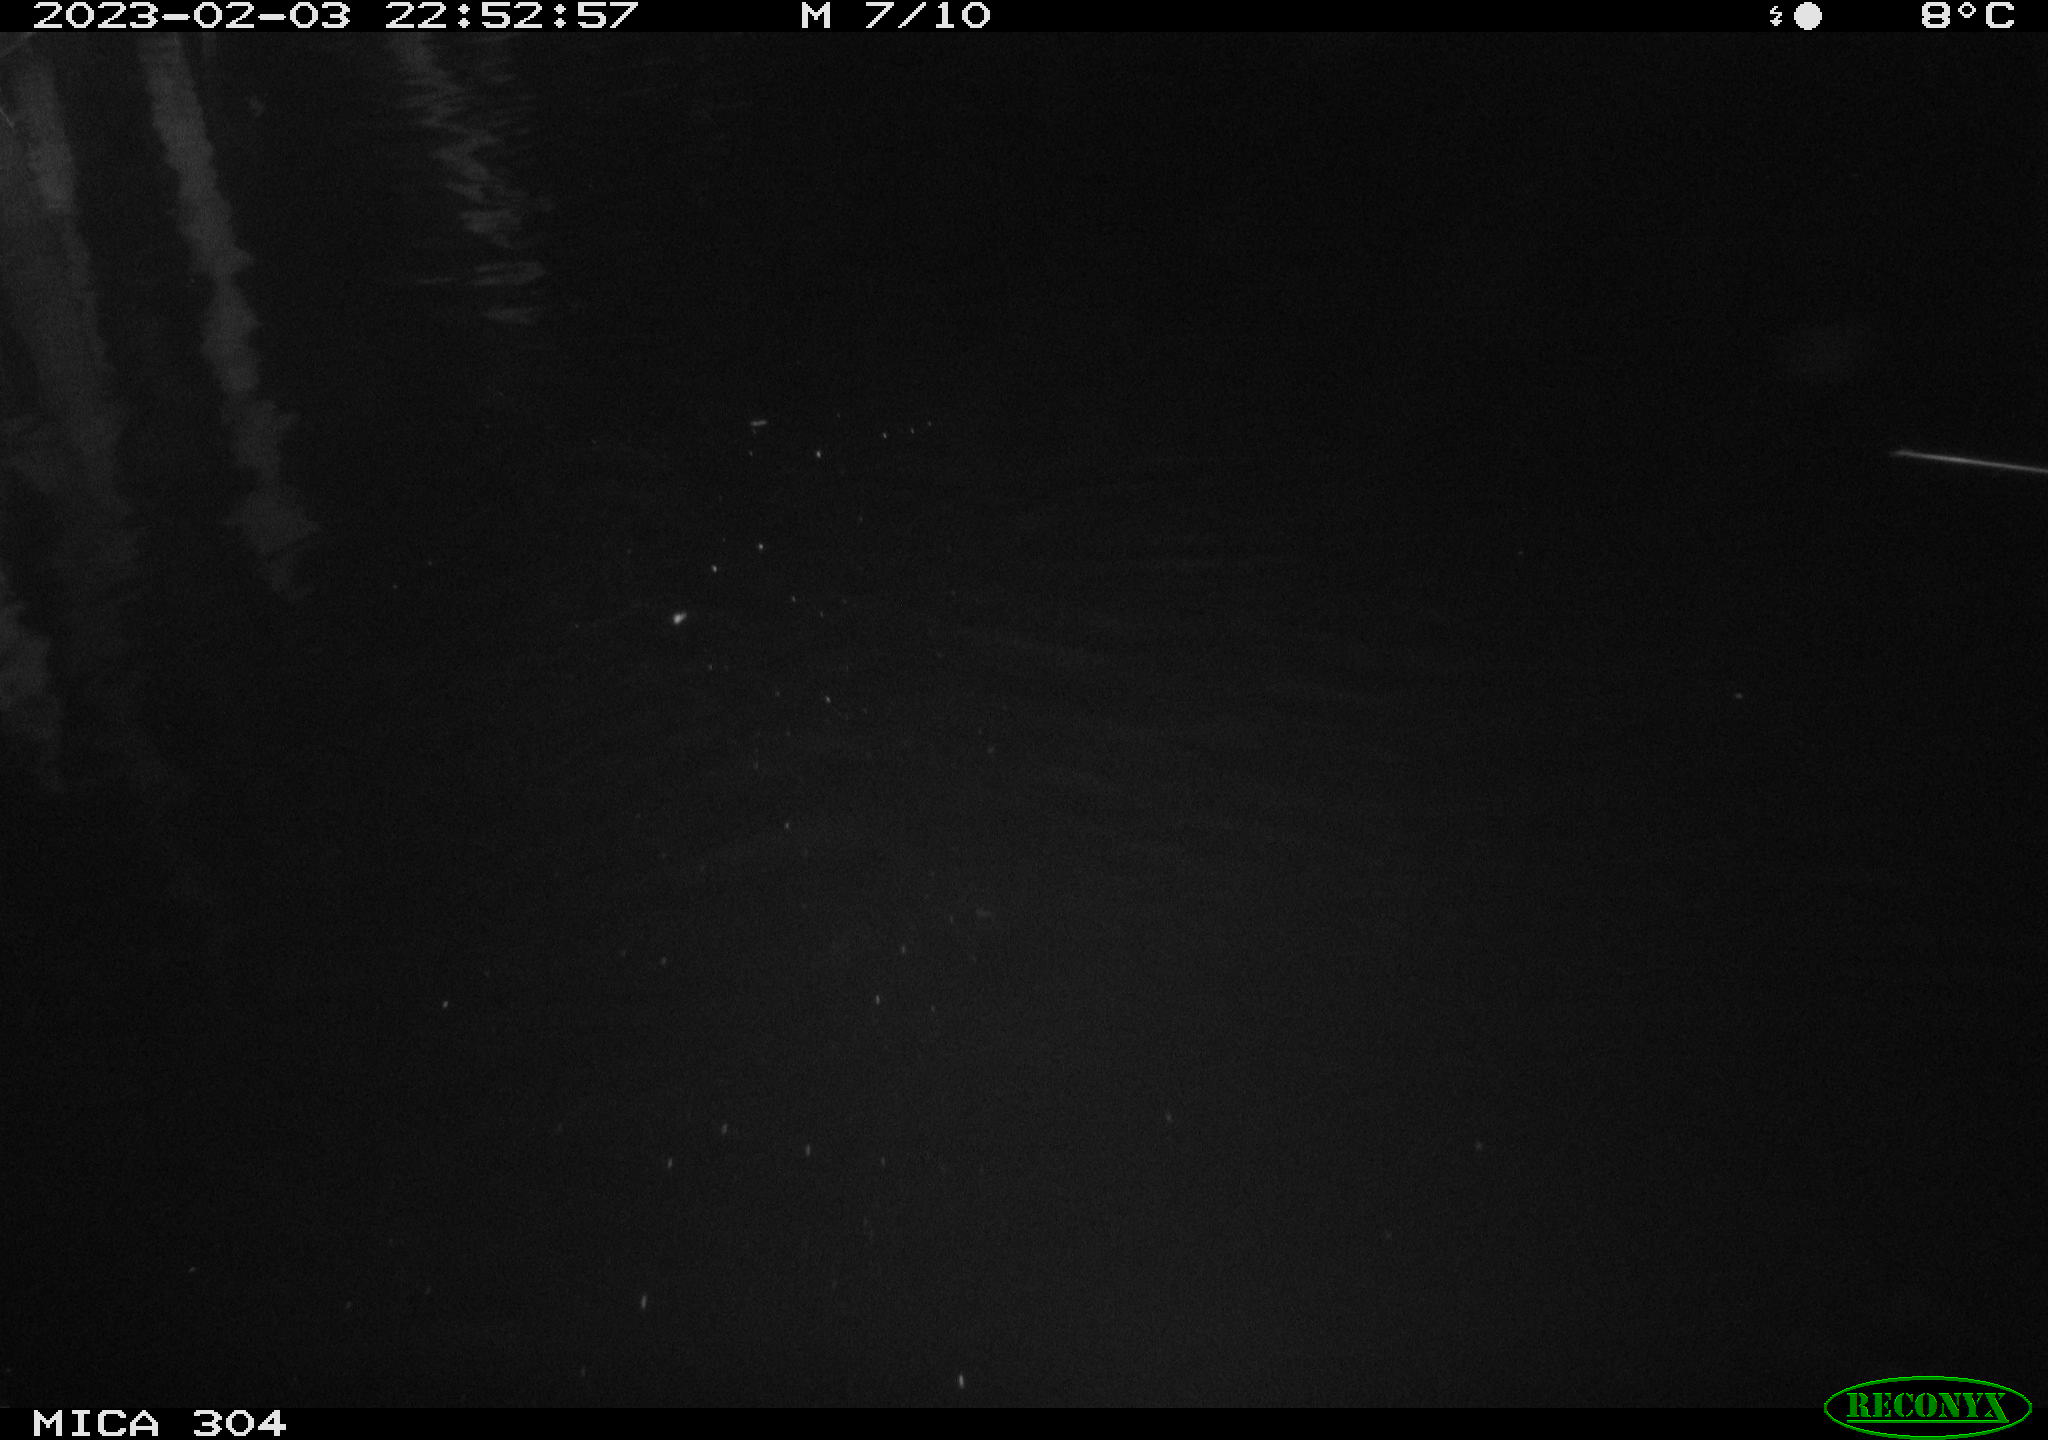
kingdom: Animalia
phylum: Chordata
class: Aves
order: Anseriformes
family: Anatidae
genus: Anas
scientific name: Anas
